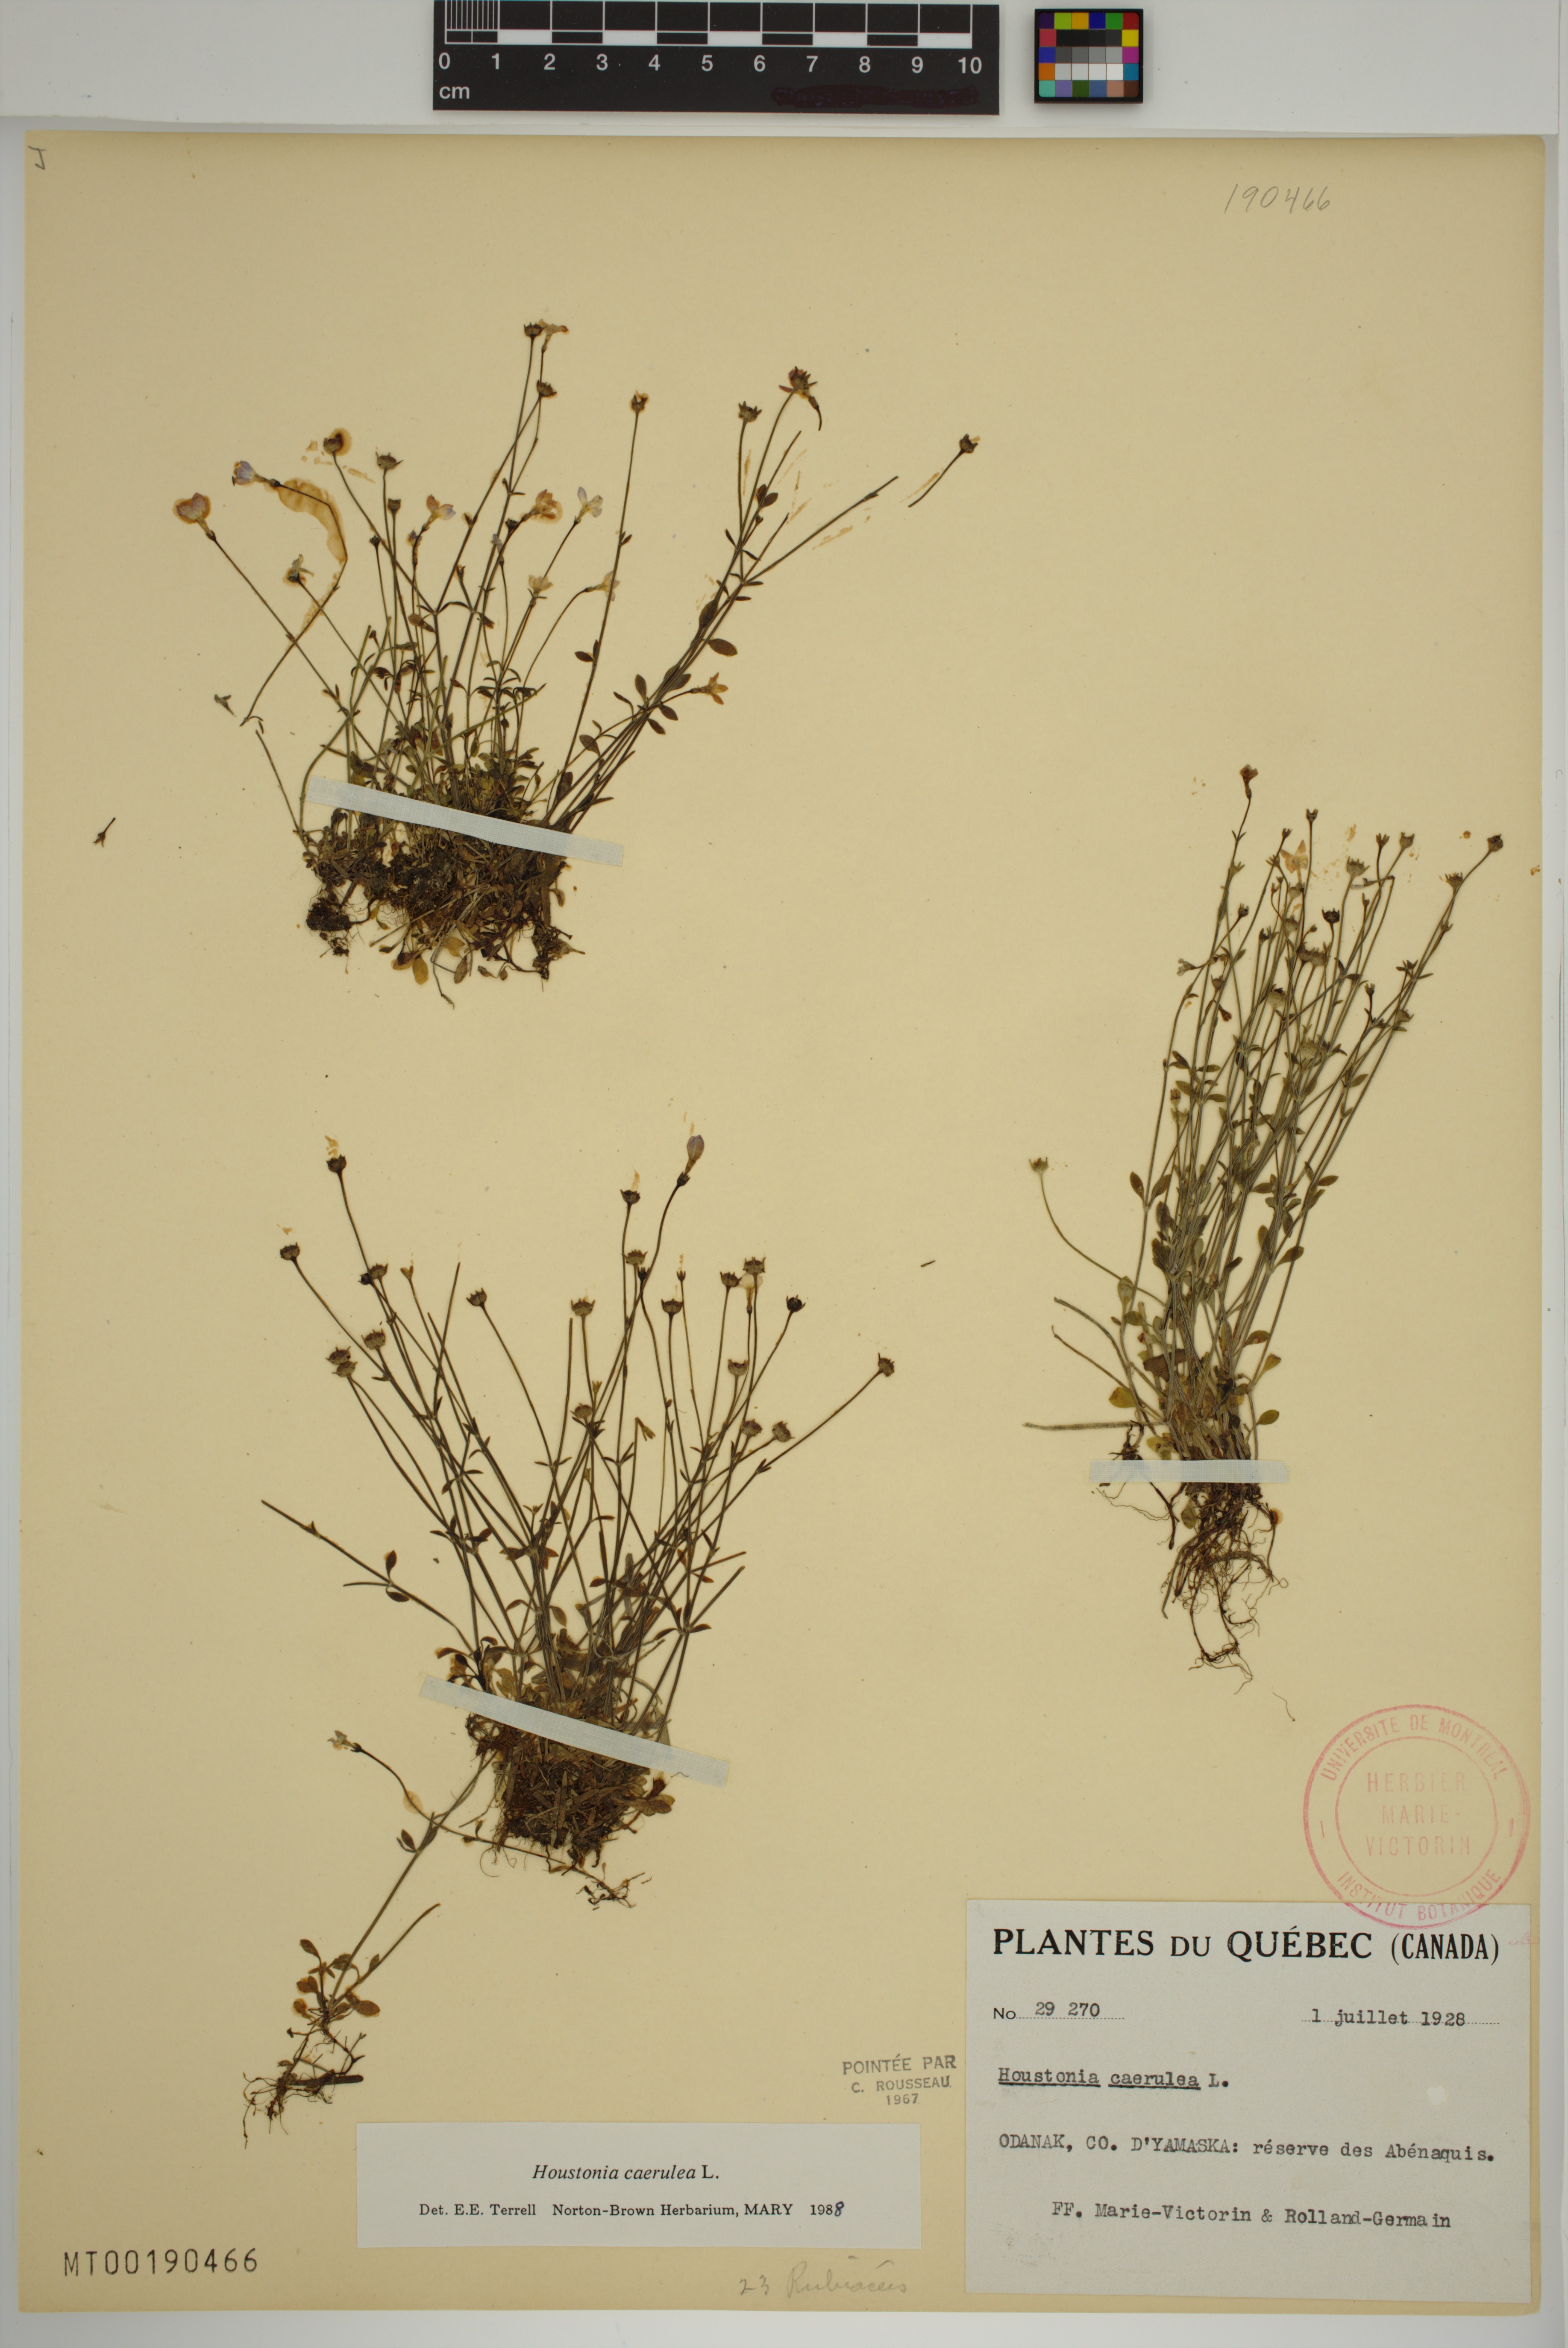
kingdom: Plantae
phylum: Tracheophyta
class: Magnoliopsida
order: Gentianales
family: Rubiaceae
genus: Houstonia
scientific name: Houstonia caerulea
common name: Bluets
